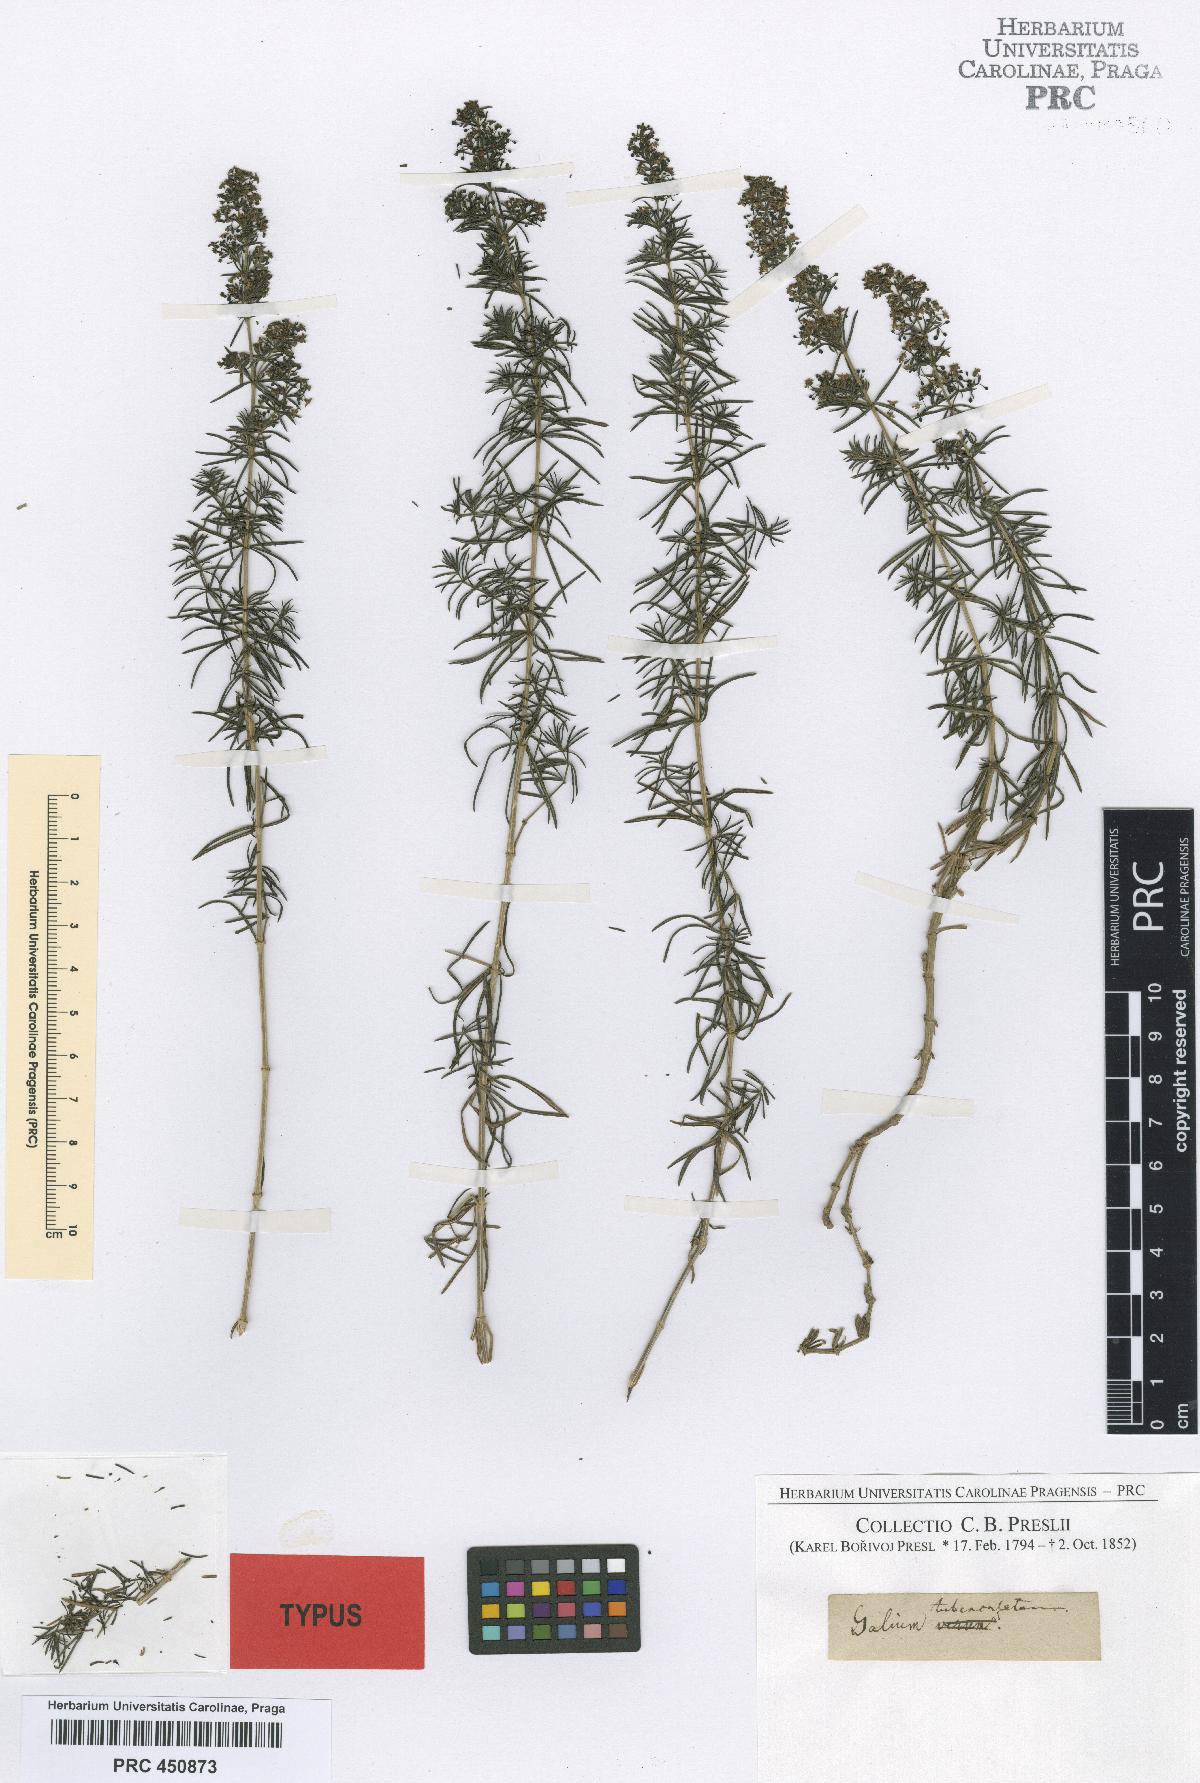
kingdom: Plantae
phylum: Tracheophyta
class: Magnoliopsida
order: Gentianales
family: Rubiaceae
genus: Galium
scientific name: Galium verum
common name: Lady's bedstraw
